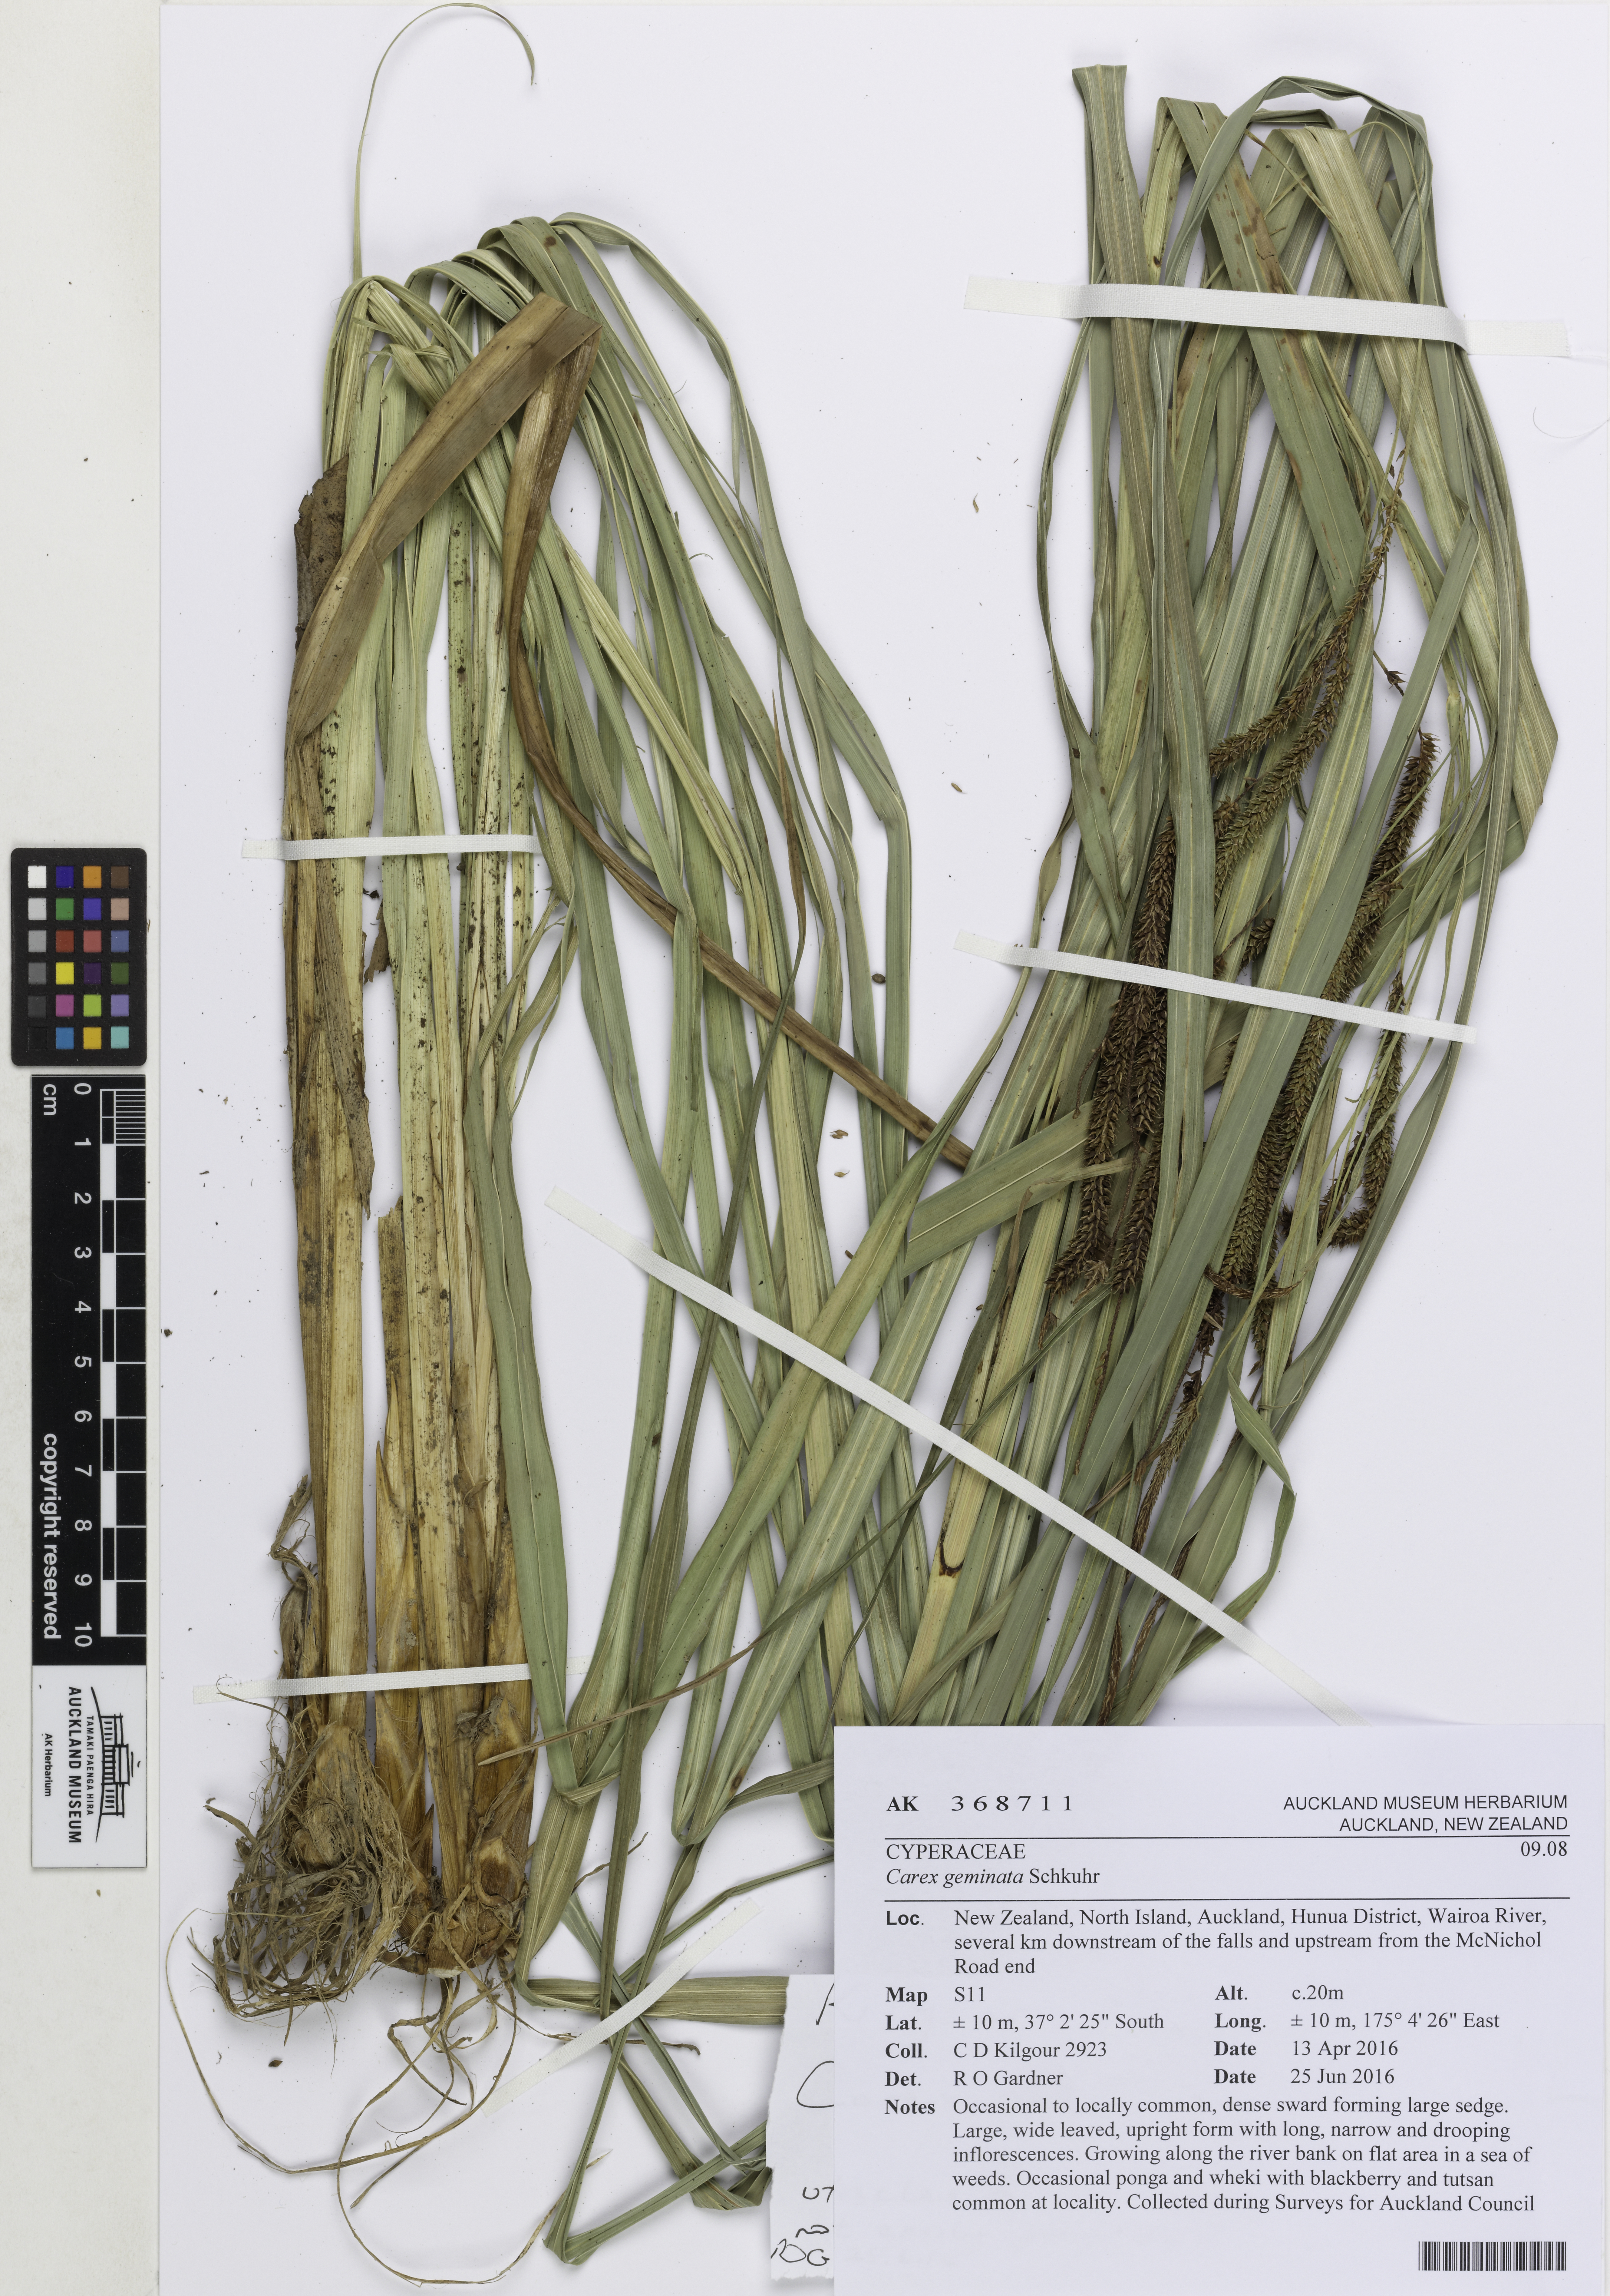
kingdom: Plantae
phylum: Tracheophyta
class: Liliopsida
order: Poales
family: Cyperaceae
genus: Carex
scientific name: Carex geminata
